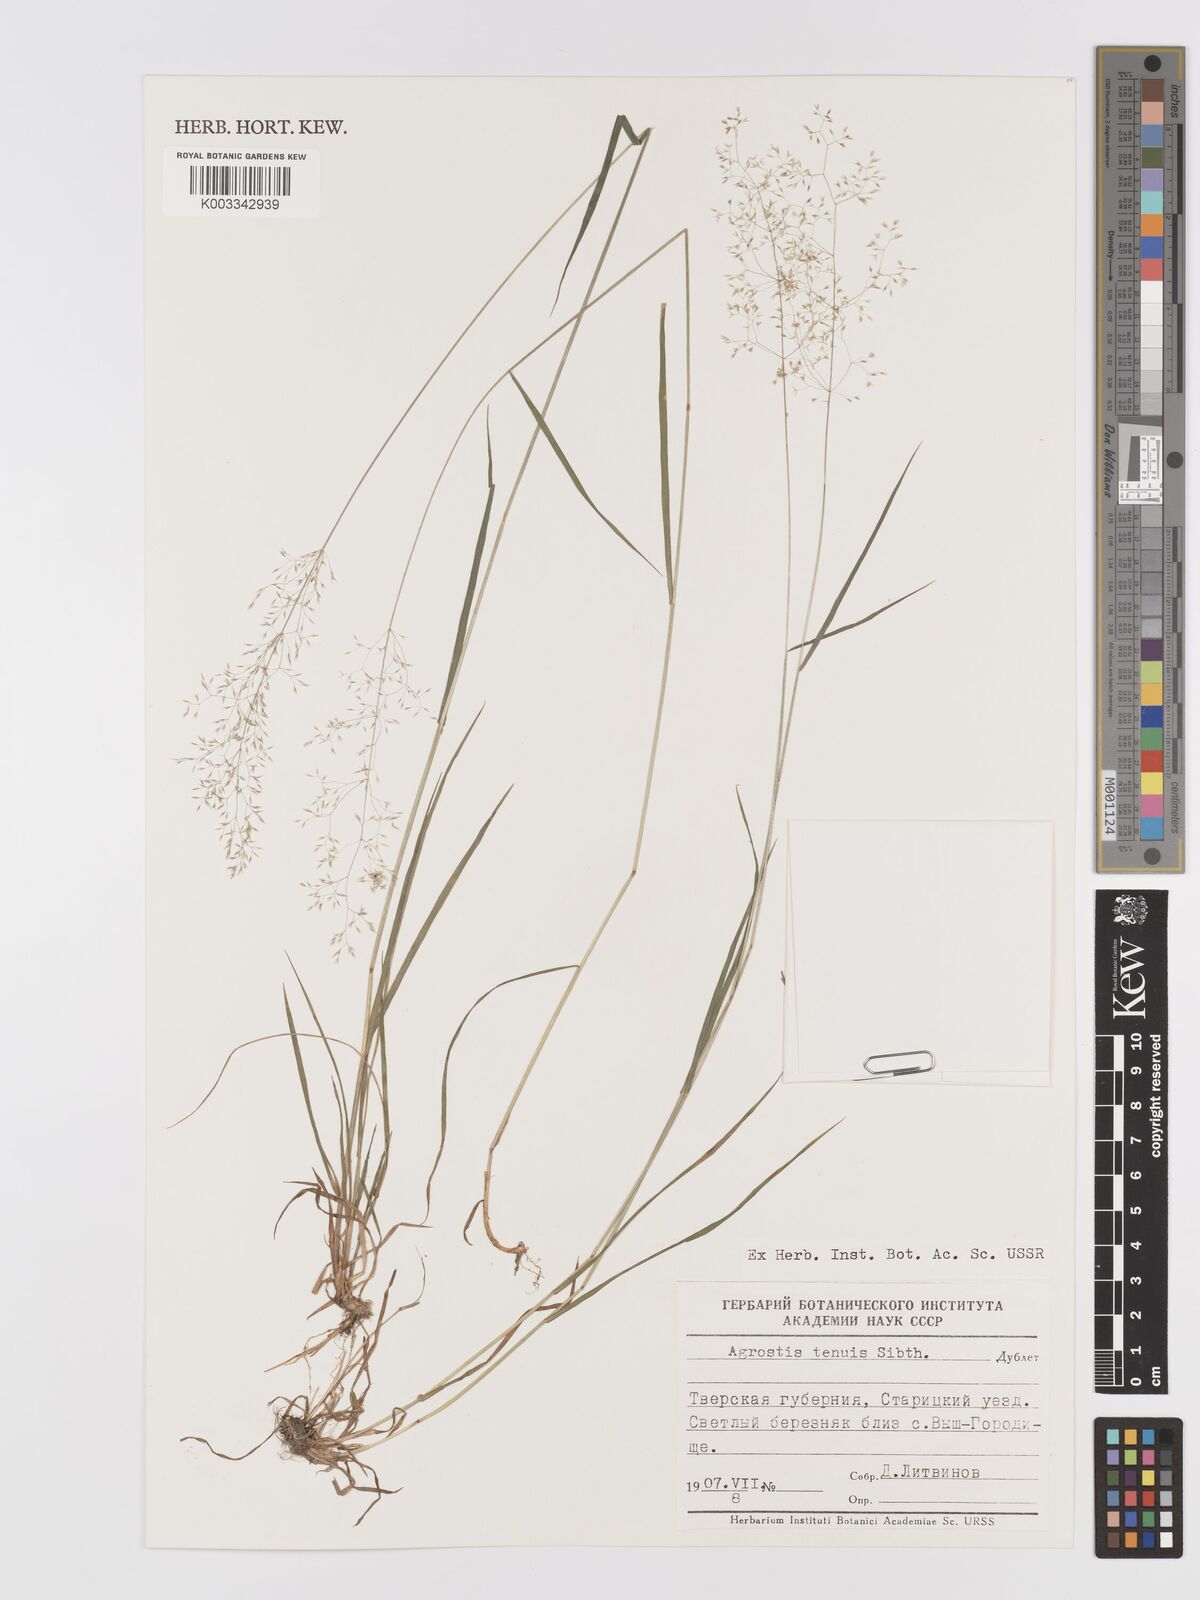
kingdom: Plantae
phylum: Tracheophyta
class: Liliopsida
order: Poales
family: Poaceae
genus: Agrostis
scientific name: Agrostis capillaris
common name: Colonial bentgrass
